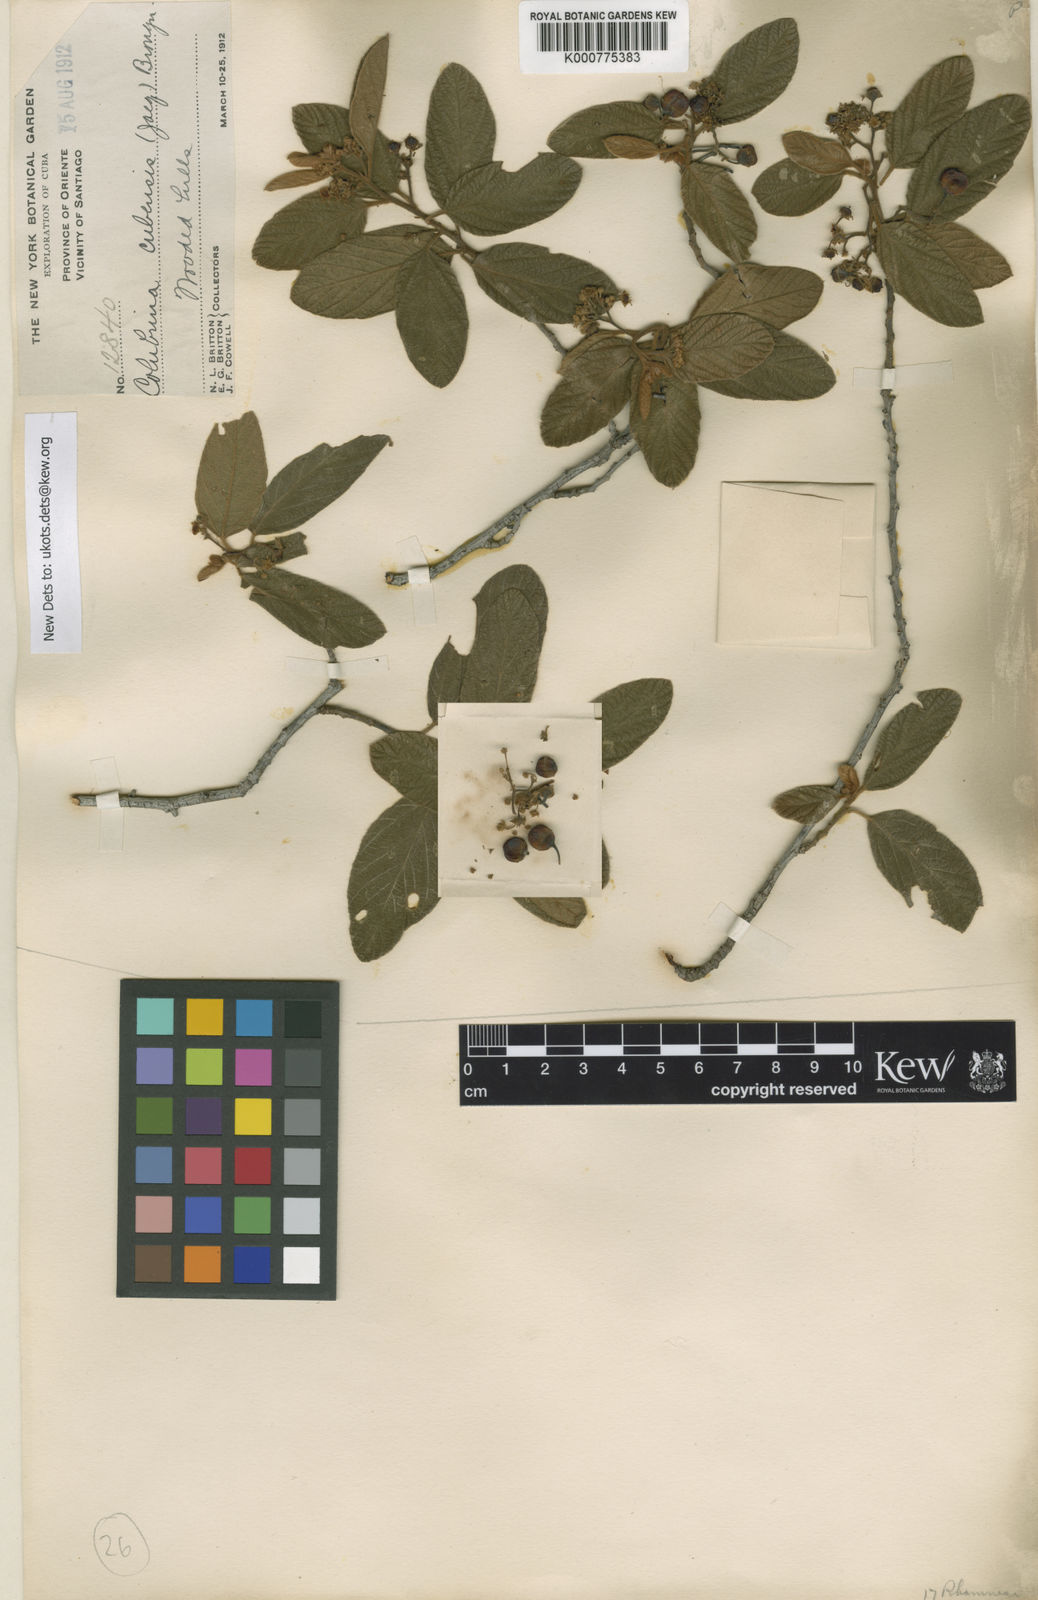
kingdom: Plantae
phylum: Tracheophyta
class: Magnoliopsida
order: Rosales
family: Rhamnaceae
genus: Colubrina
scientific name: Colubrina cubensis
